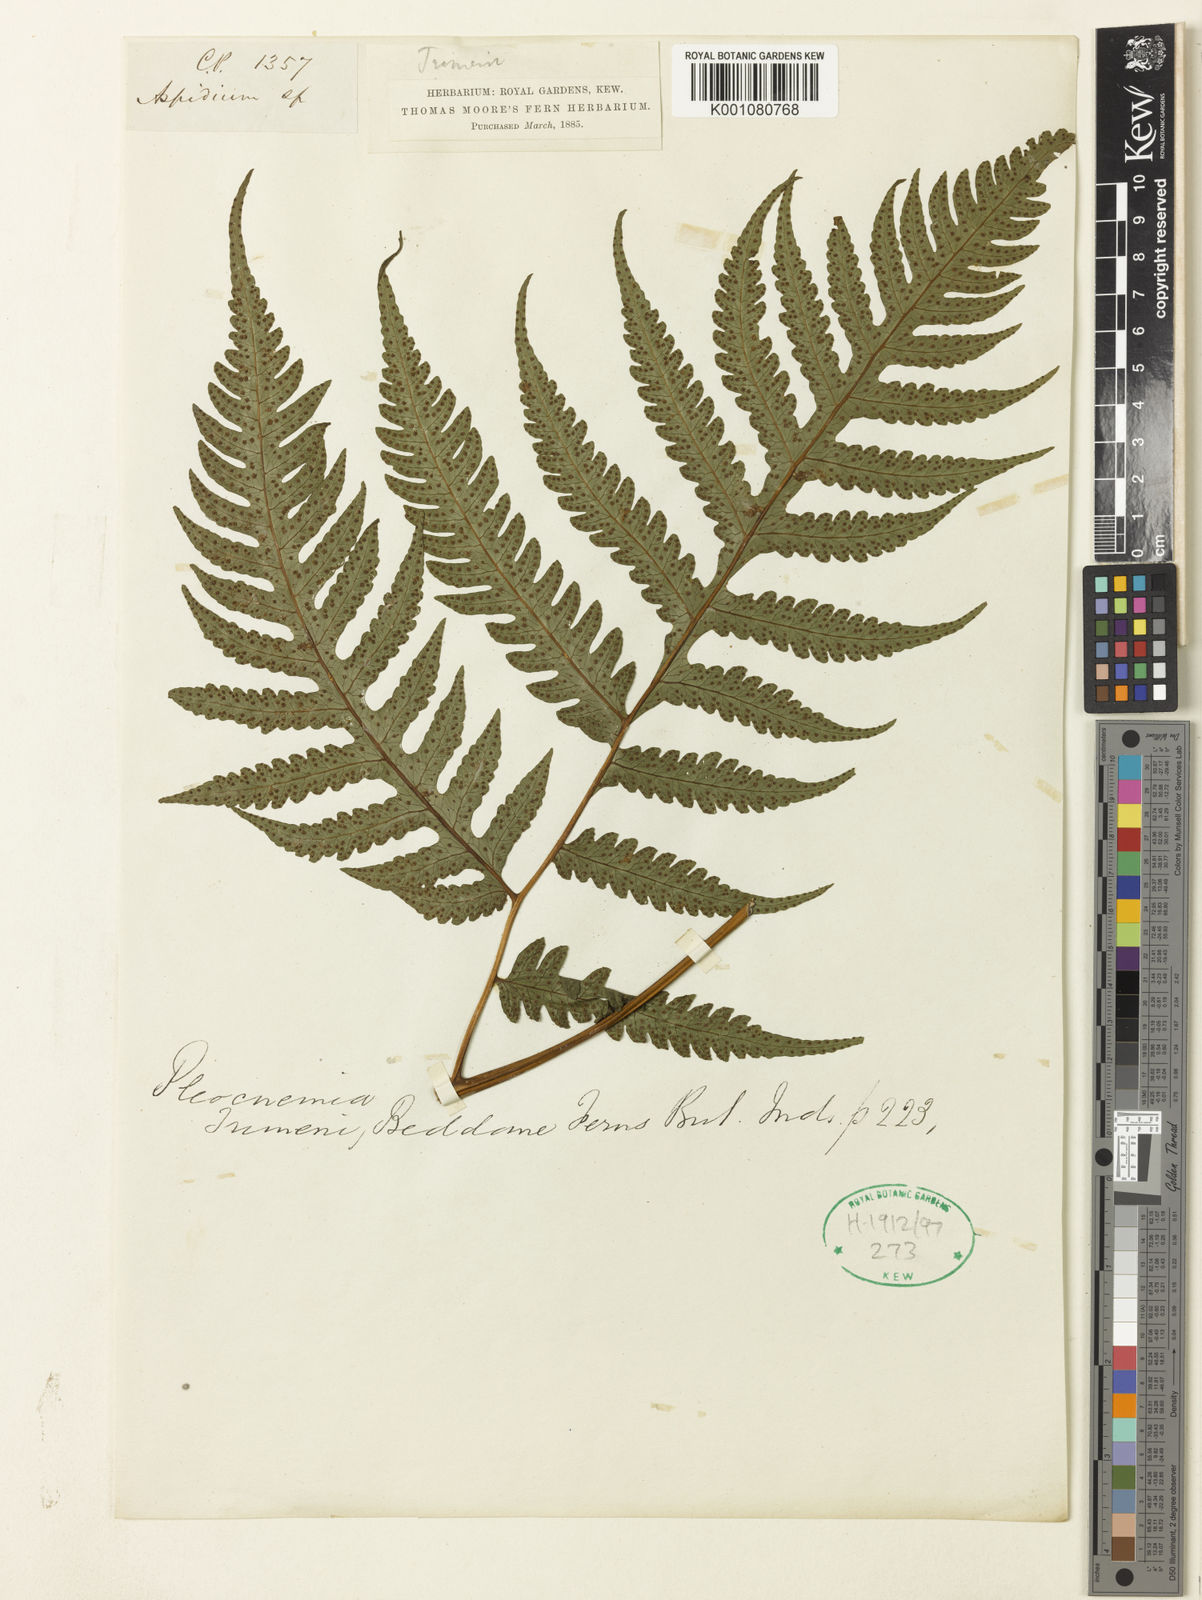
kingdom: Plantae
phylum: Tracheophyta
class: Polypodiopsida
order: Polypodiales
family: Tectariaceae
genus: Tectaria
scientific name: Tectaria trimenii
